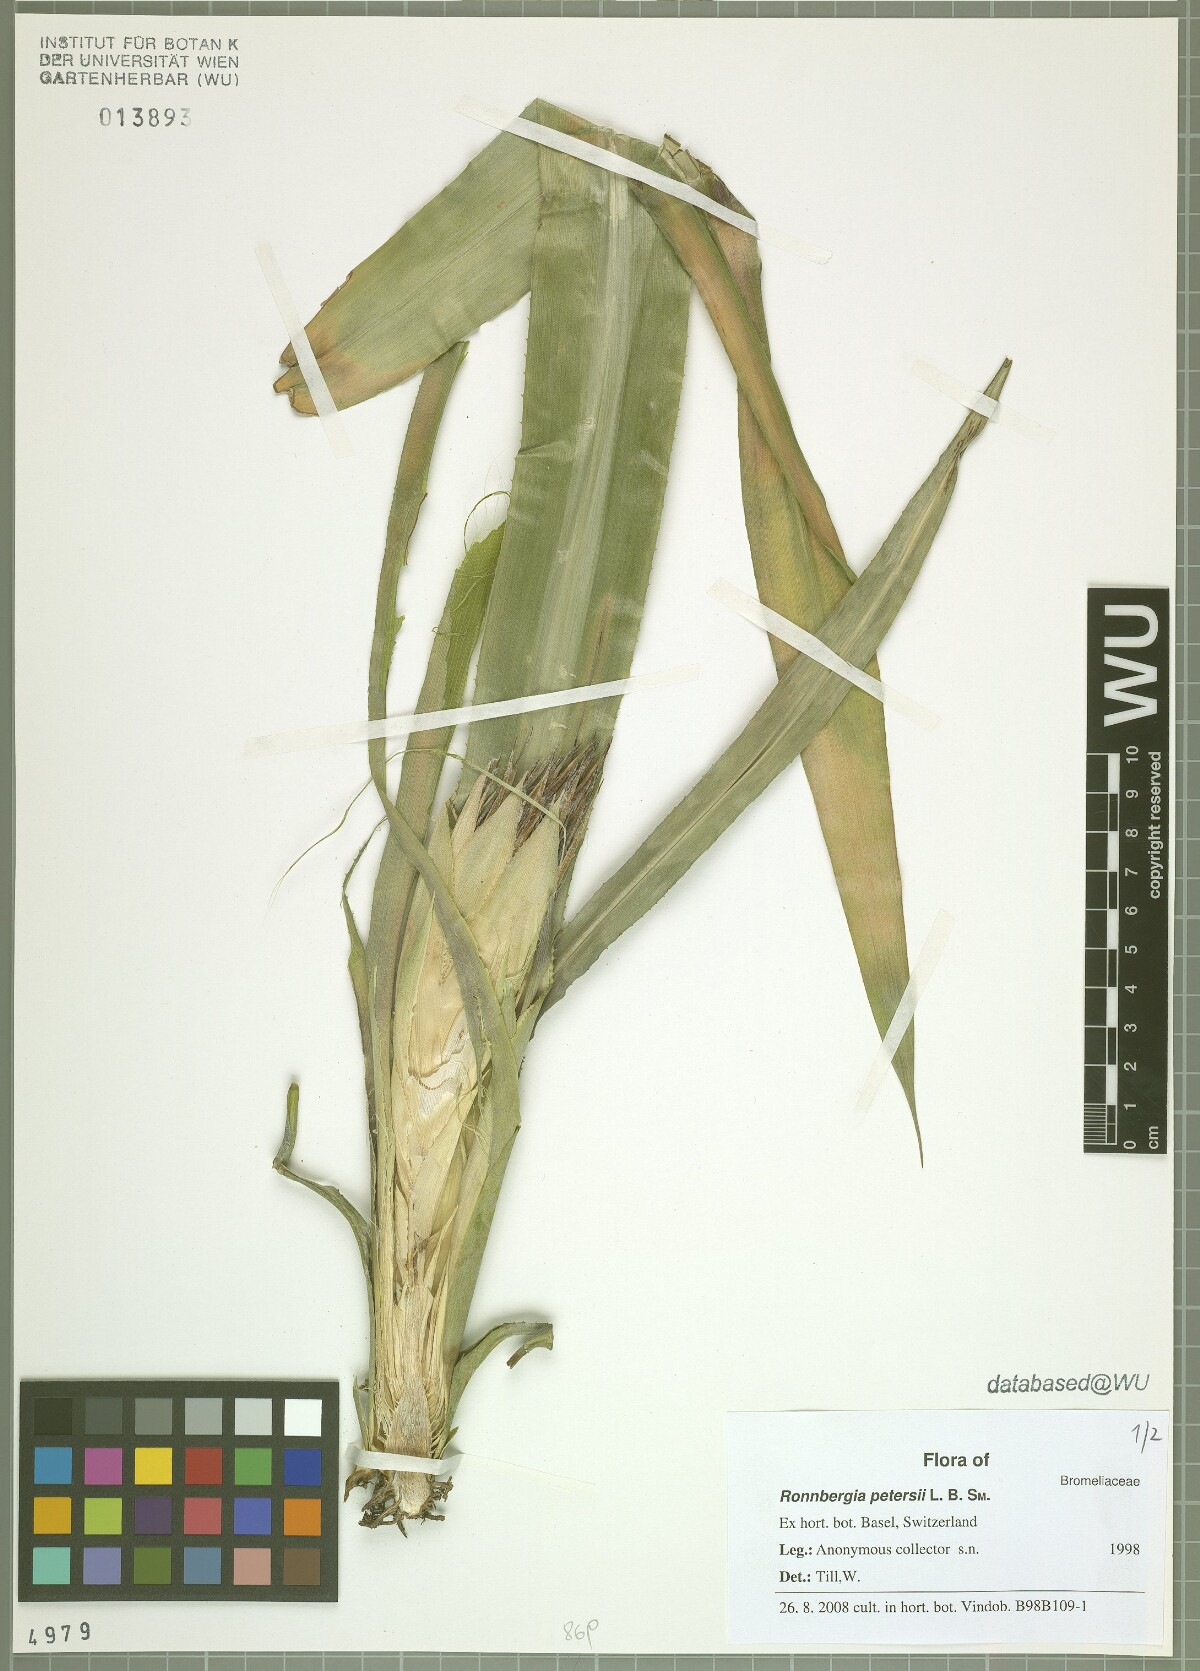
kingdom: Plantae
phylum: Tracheophyta
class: Liliopsida
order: Poales
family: Bromeliaceae
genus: Ronnbergia
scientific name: Ronnbergia allenii
